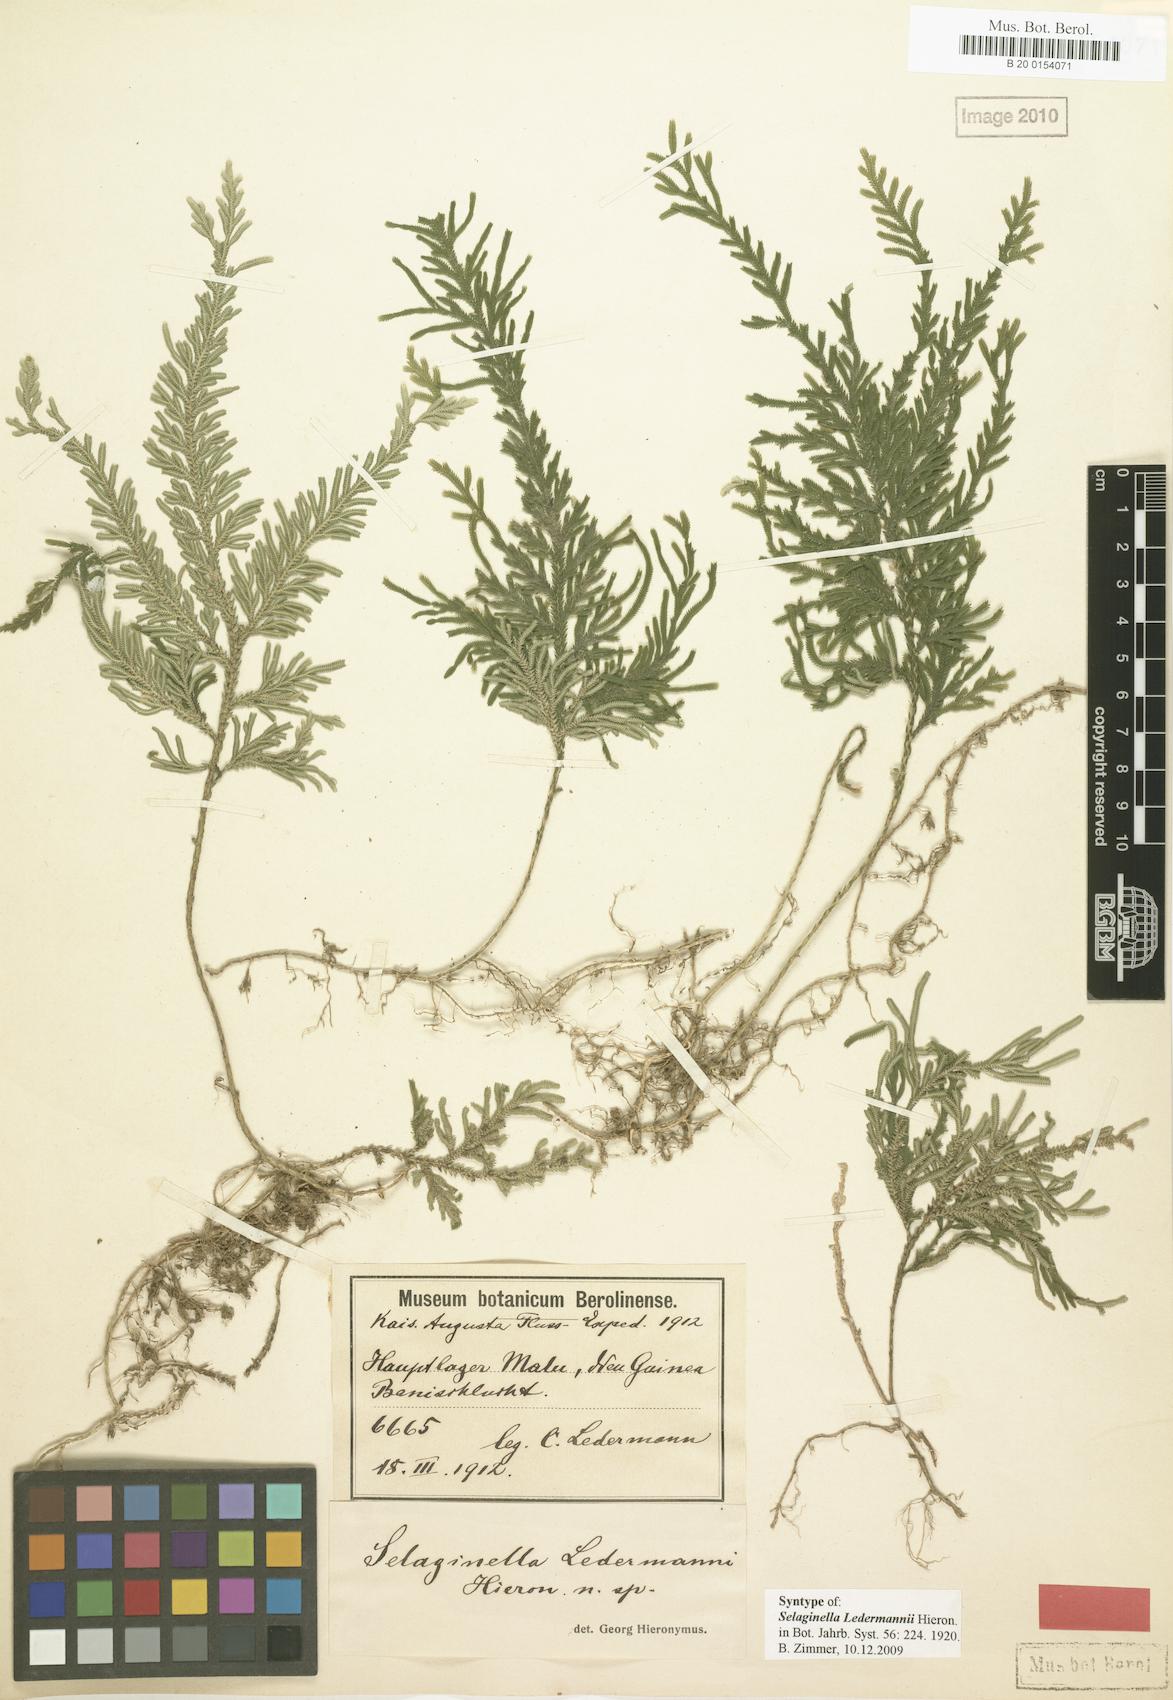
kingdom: Plantae
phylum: Tracheophyta
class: Lycopodiopsida
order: Selaginellales
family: Selaginellaceae
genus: Selaginella
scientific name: Selaginella ledermannii
